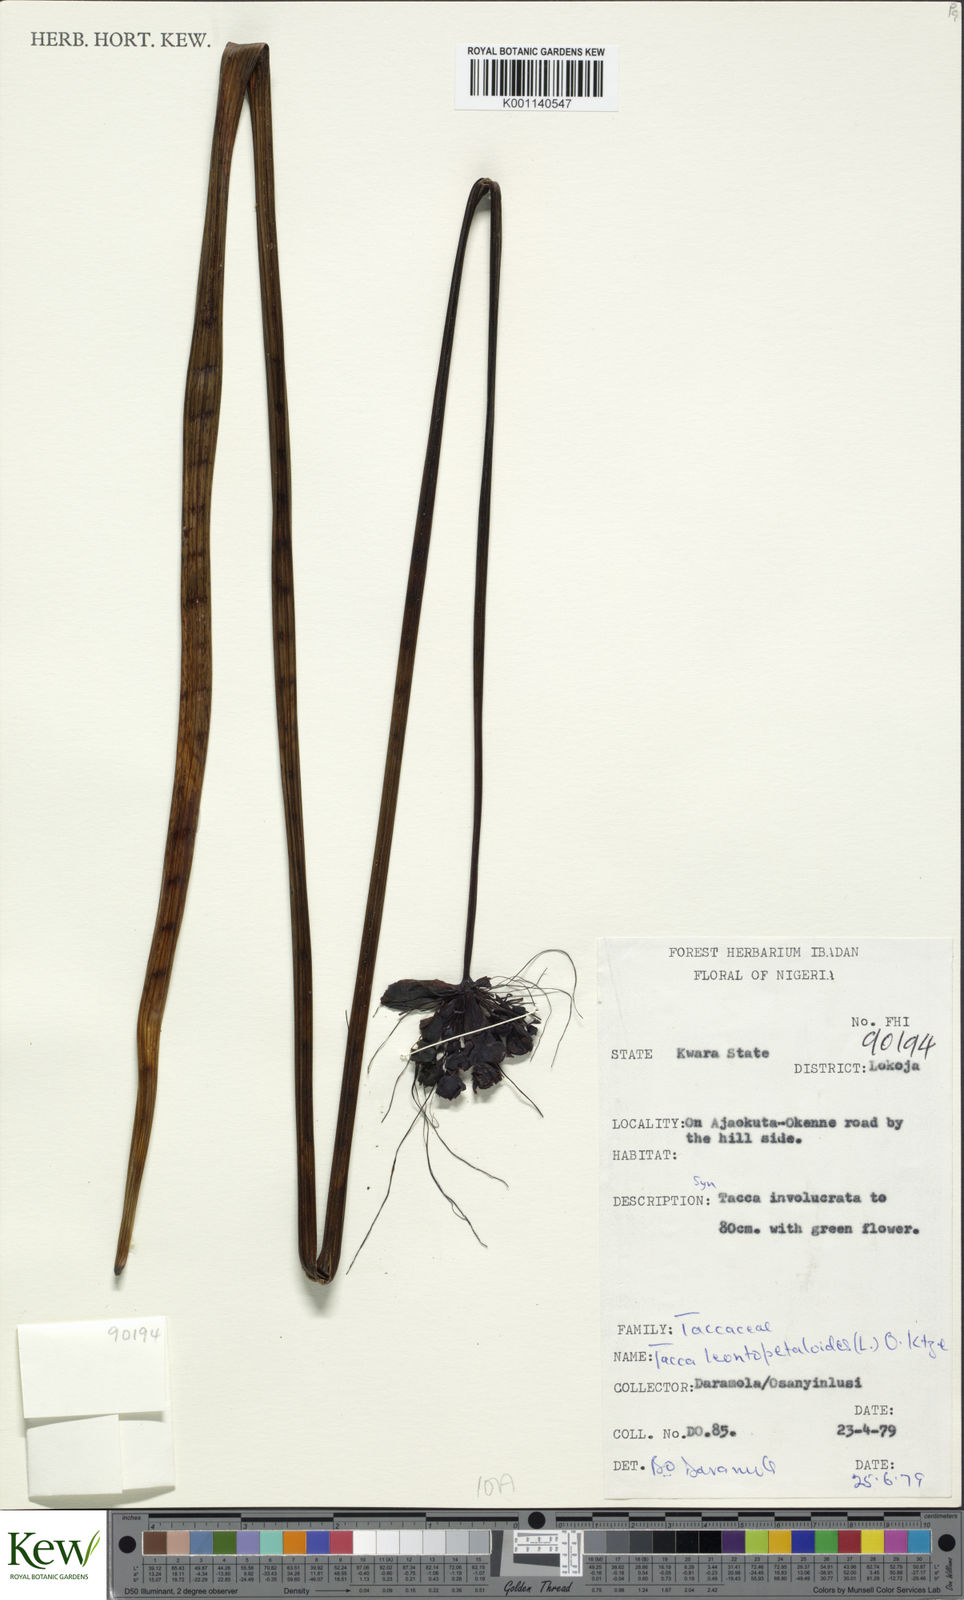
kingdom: Plantae
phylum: Tracheophyta
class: Liliopsida
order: Dioscoreales
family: Dioscoreaceae
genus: Tacca
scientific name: Tacca leontopetaloides
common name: Arrowroot
